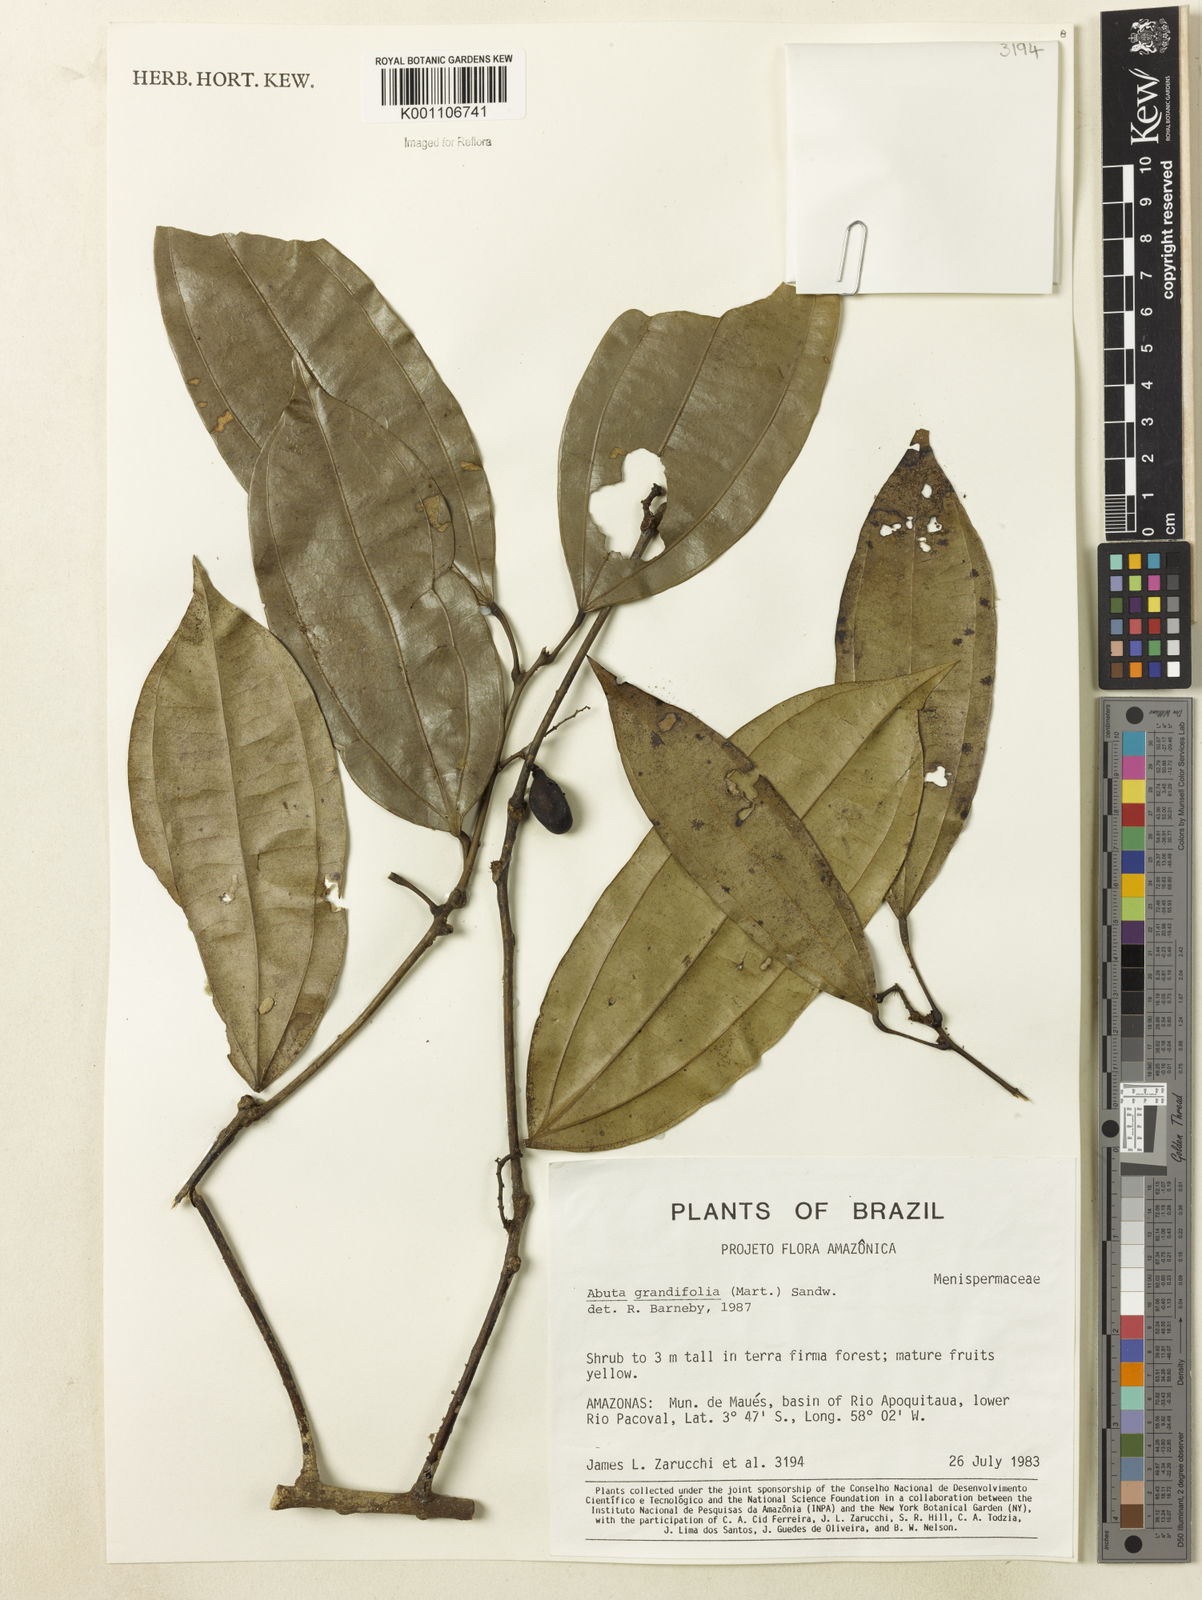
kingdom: Plantae
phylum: Tracheophyta
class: Magnoliopsida
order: Ranunculales
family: Menispermaceae
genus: Abuta
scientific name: Abuta grandifolia
